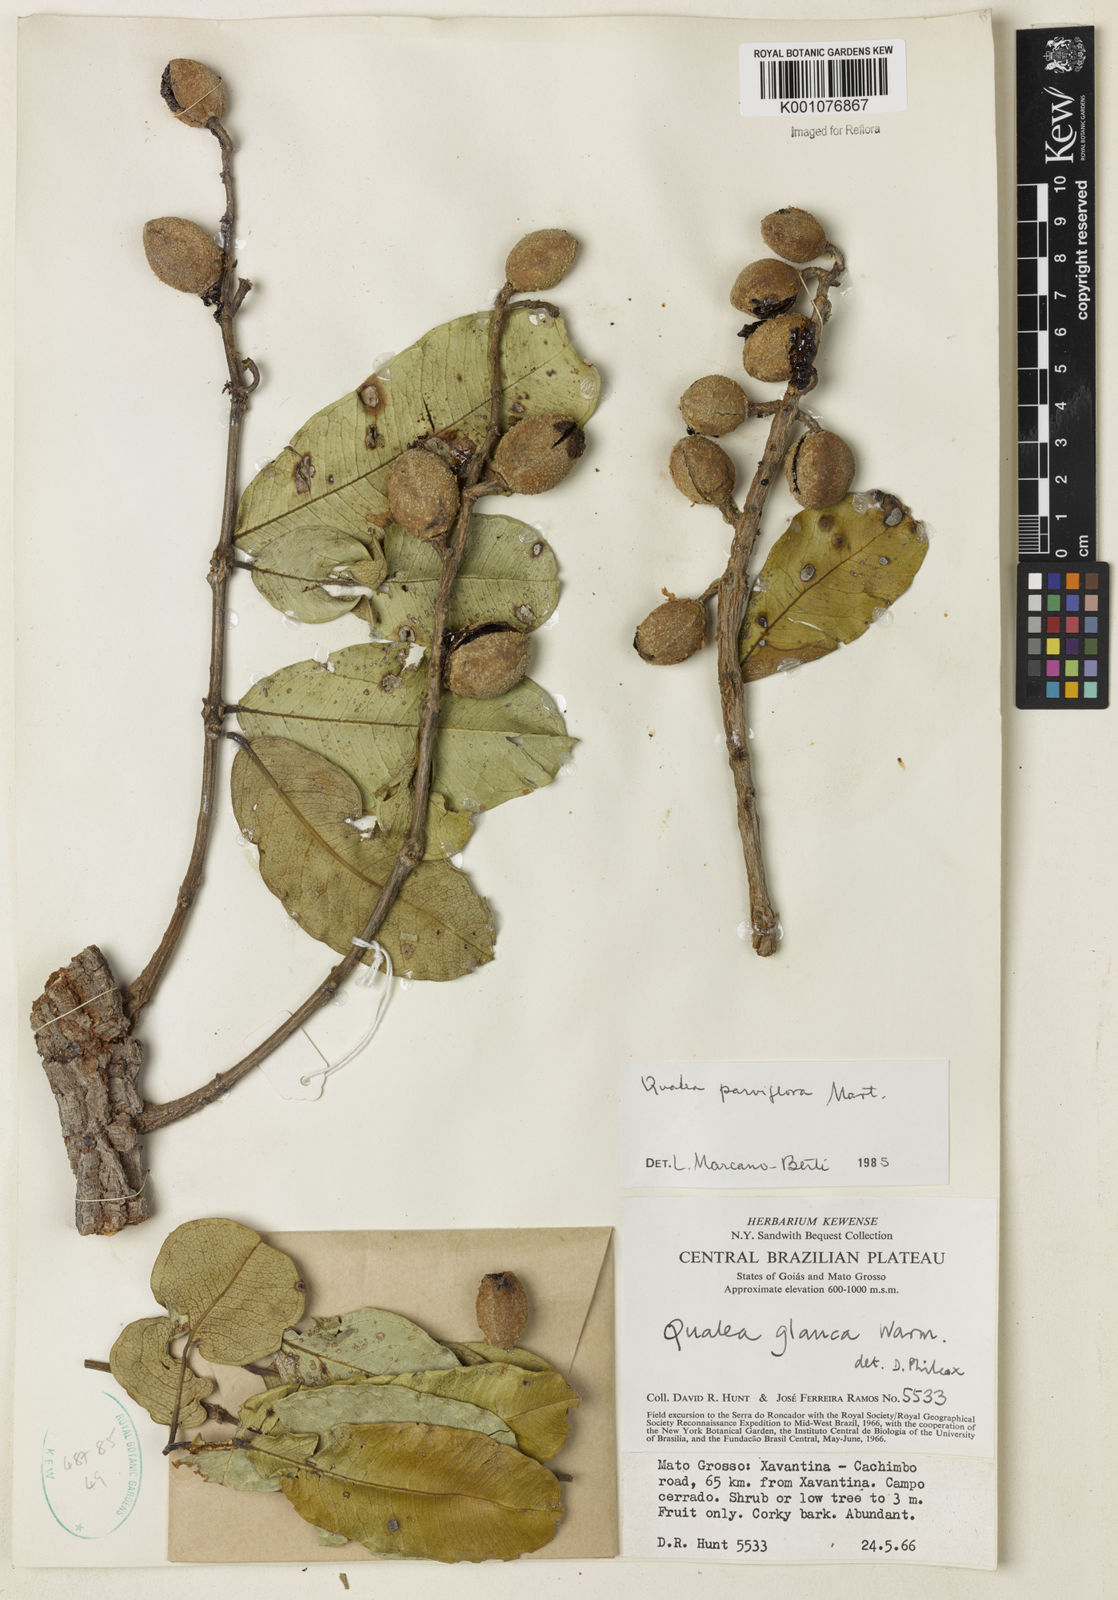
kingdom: Plantae
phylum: Tracheophyta
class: Magnoliopsida
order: Myrtales
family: Vochysiaceae
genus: Qualea
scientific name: Qualea parviflora
